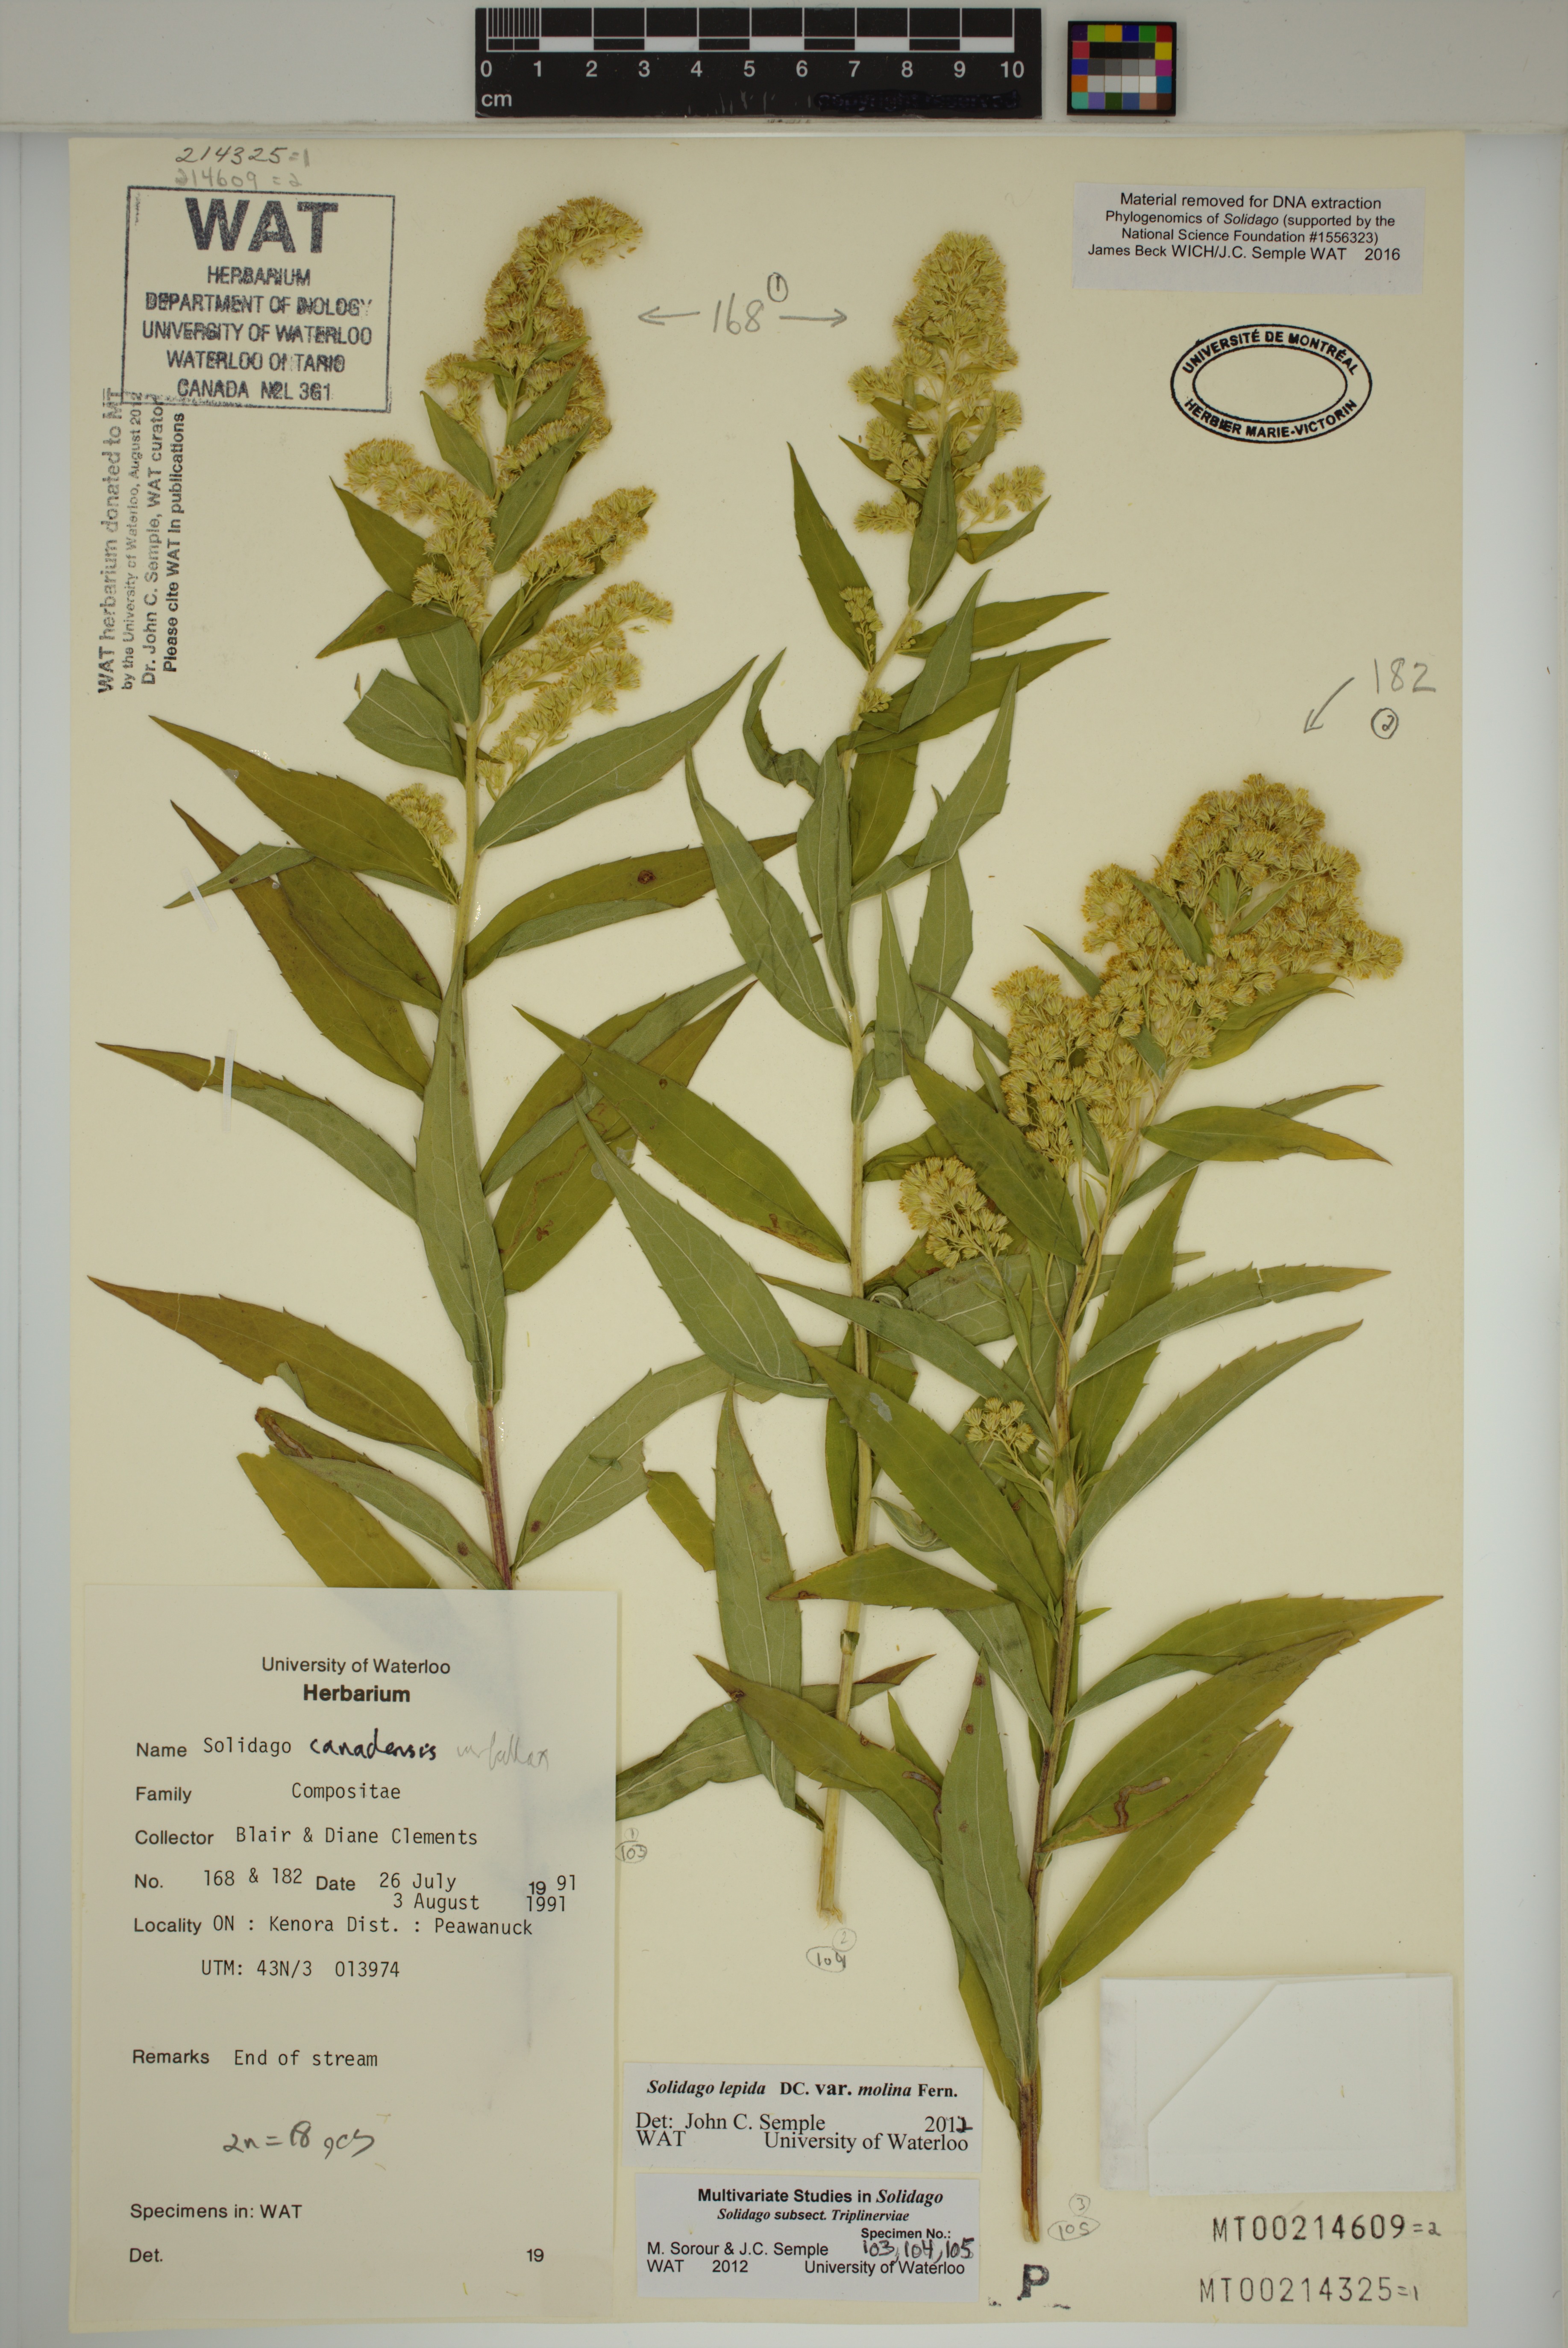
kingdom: Plantae
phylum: Tracheophyta
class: Magnoliopsida
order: Asterales
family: Asteraceae
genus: Solidago
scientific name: Solidago fallax
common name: Big-toothed canada goldenrod
